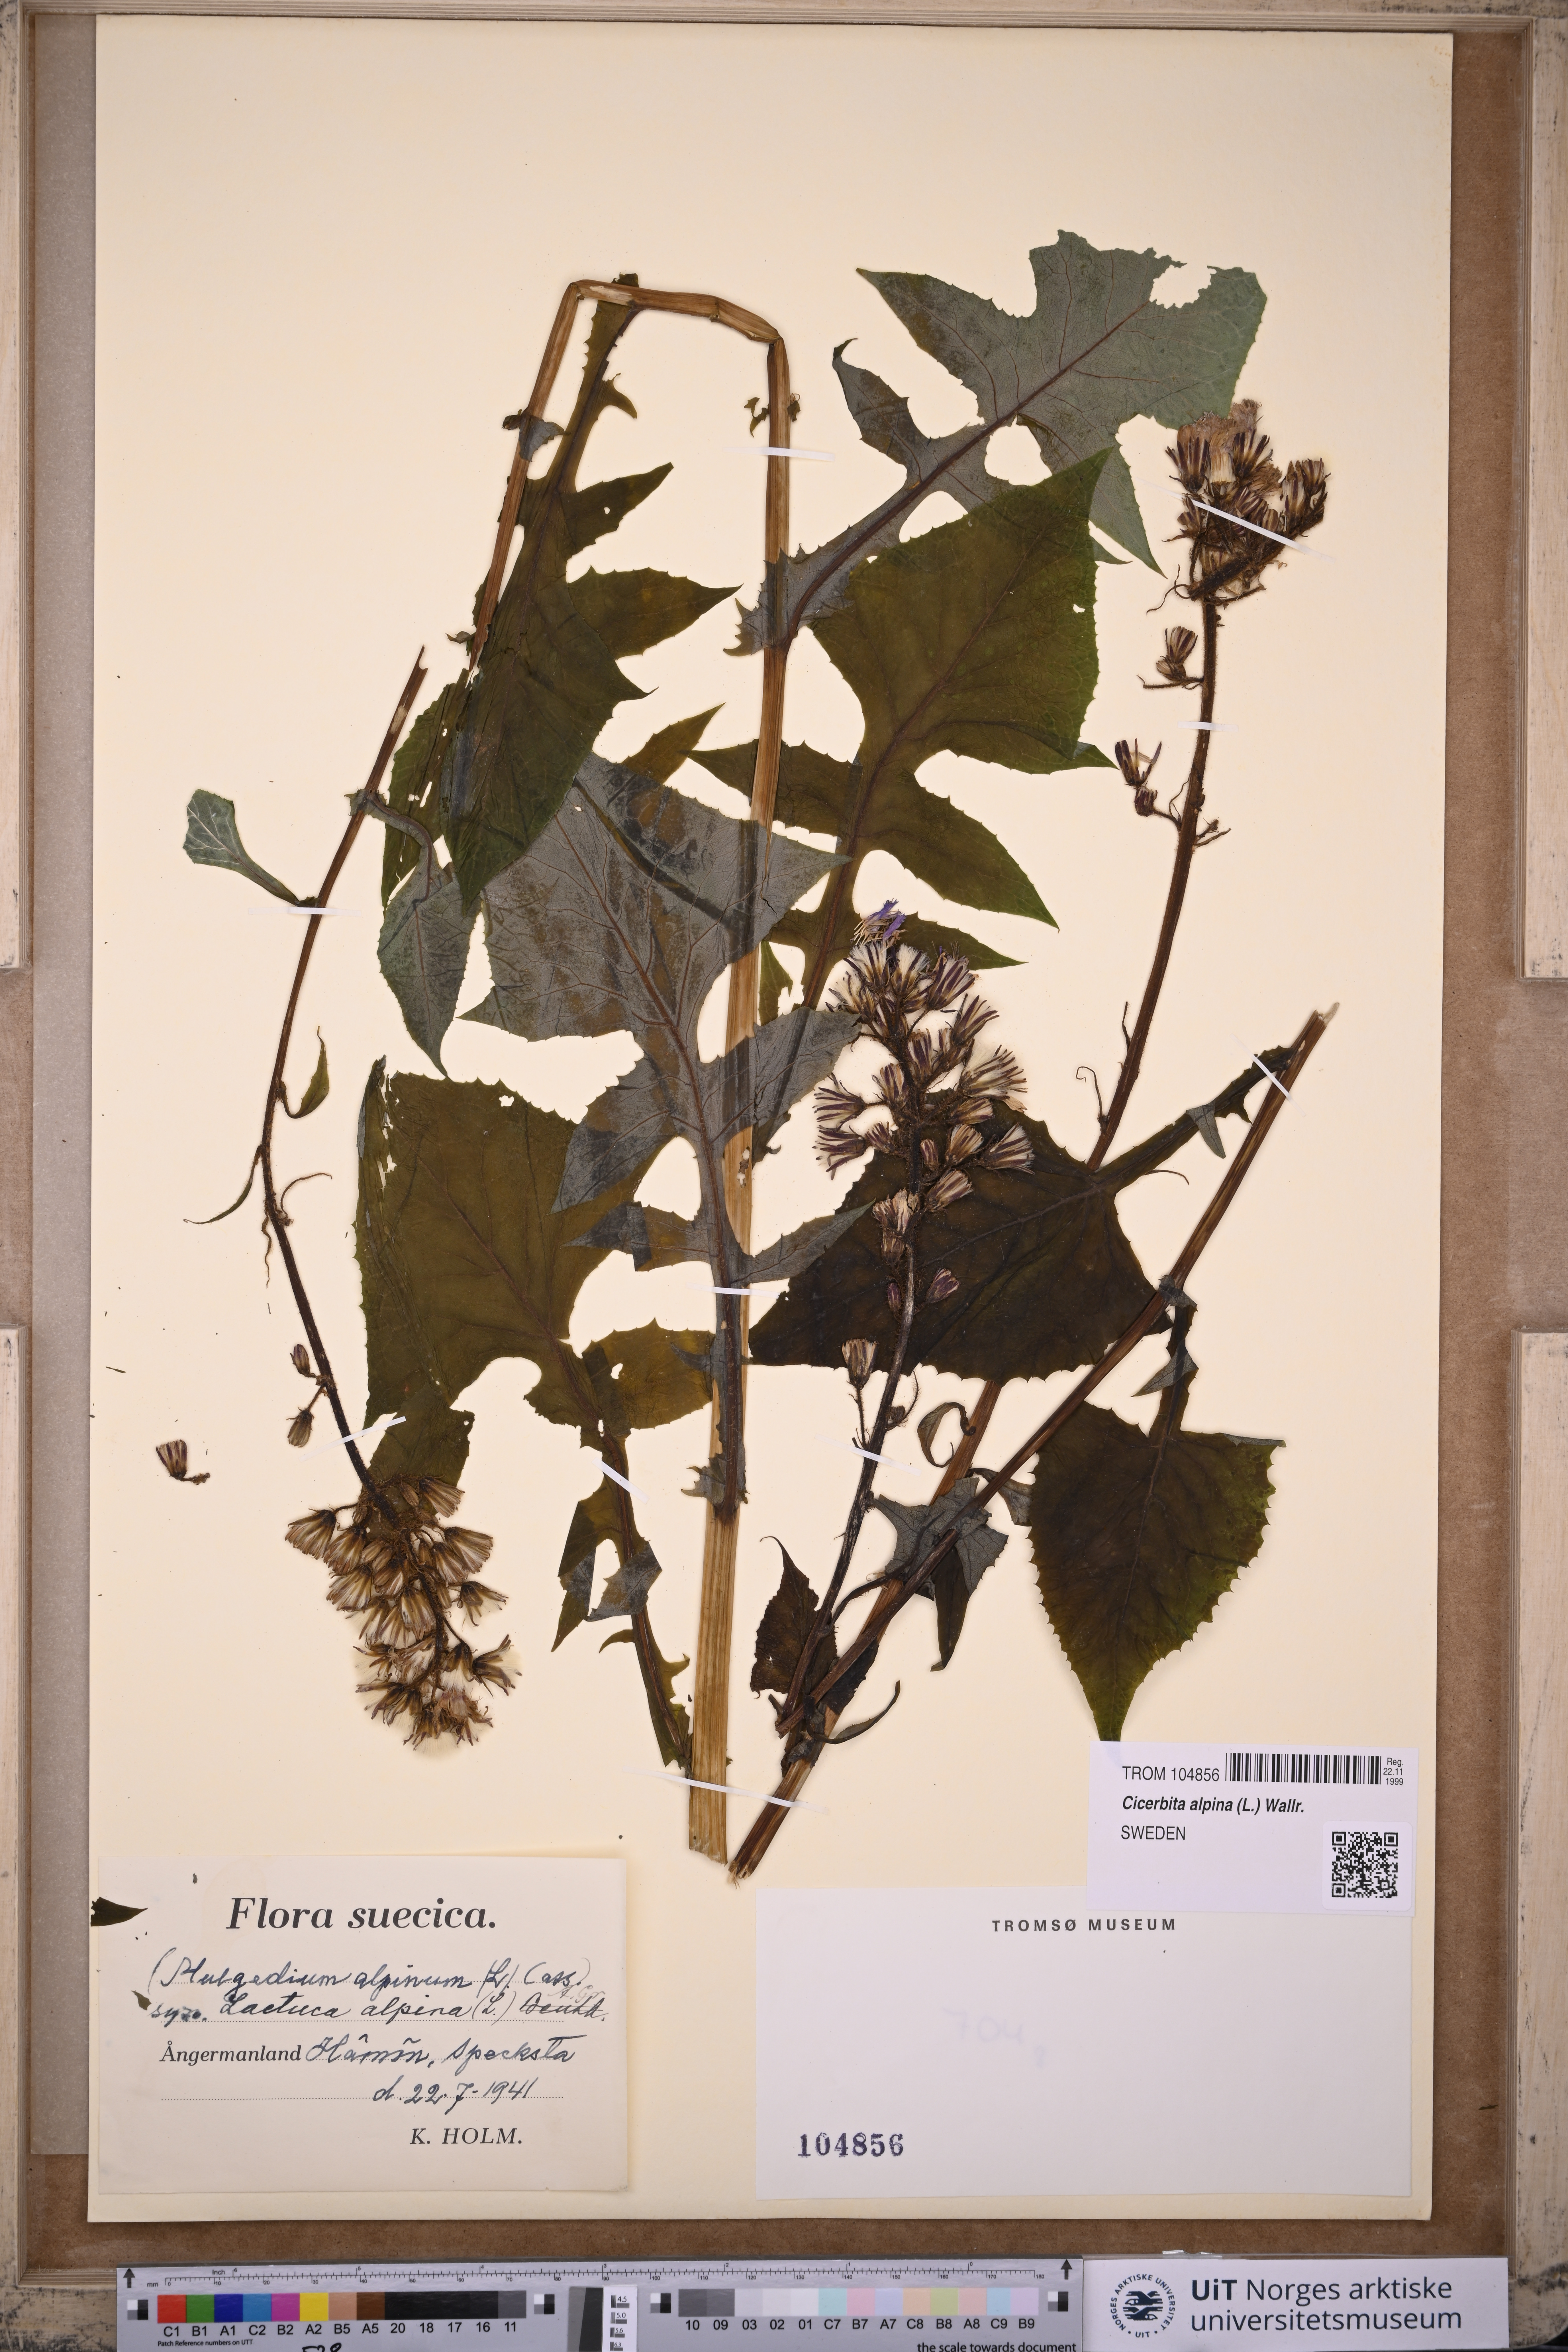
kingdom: Plantae
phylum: Tracheophyta
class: Magnoliopsida
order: Asterales
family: Asteraceae
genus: Cicerbita
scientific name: Cicerbita alpina
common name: Alpine blue-sow-thistle
